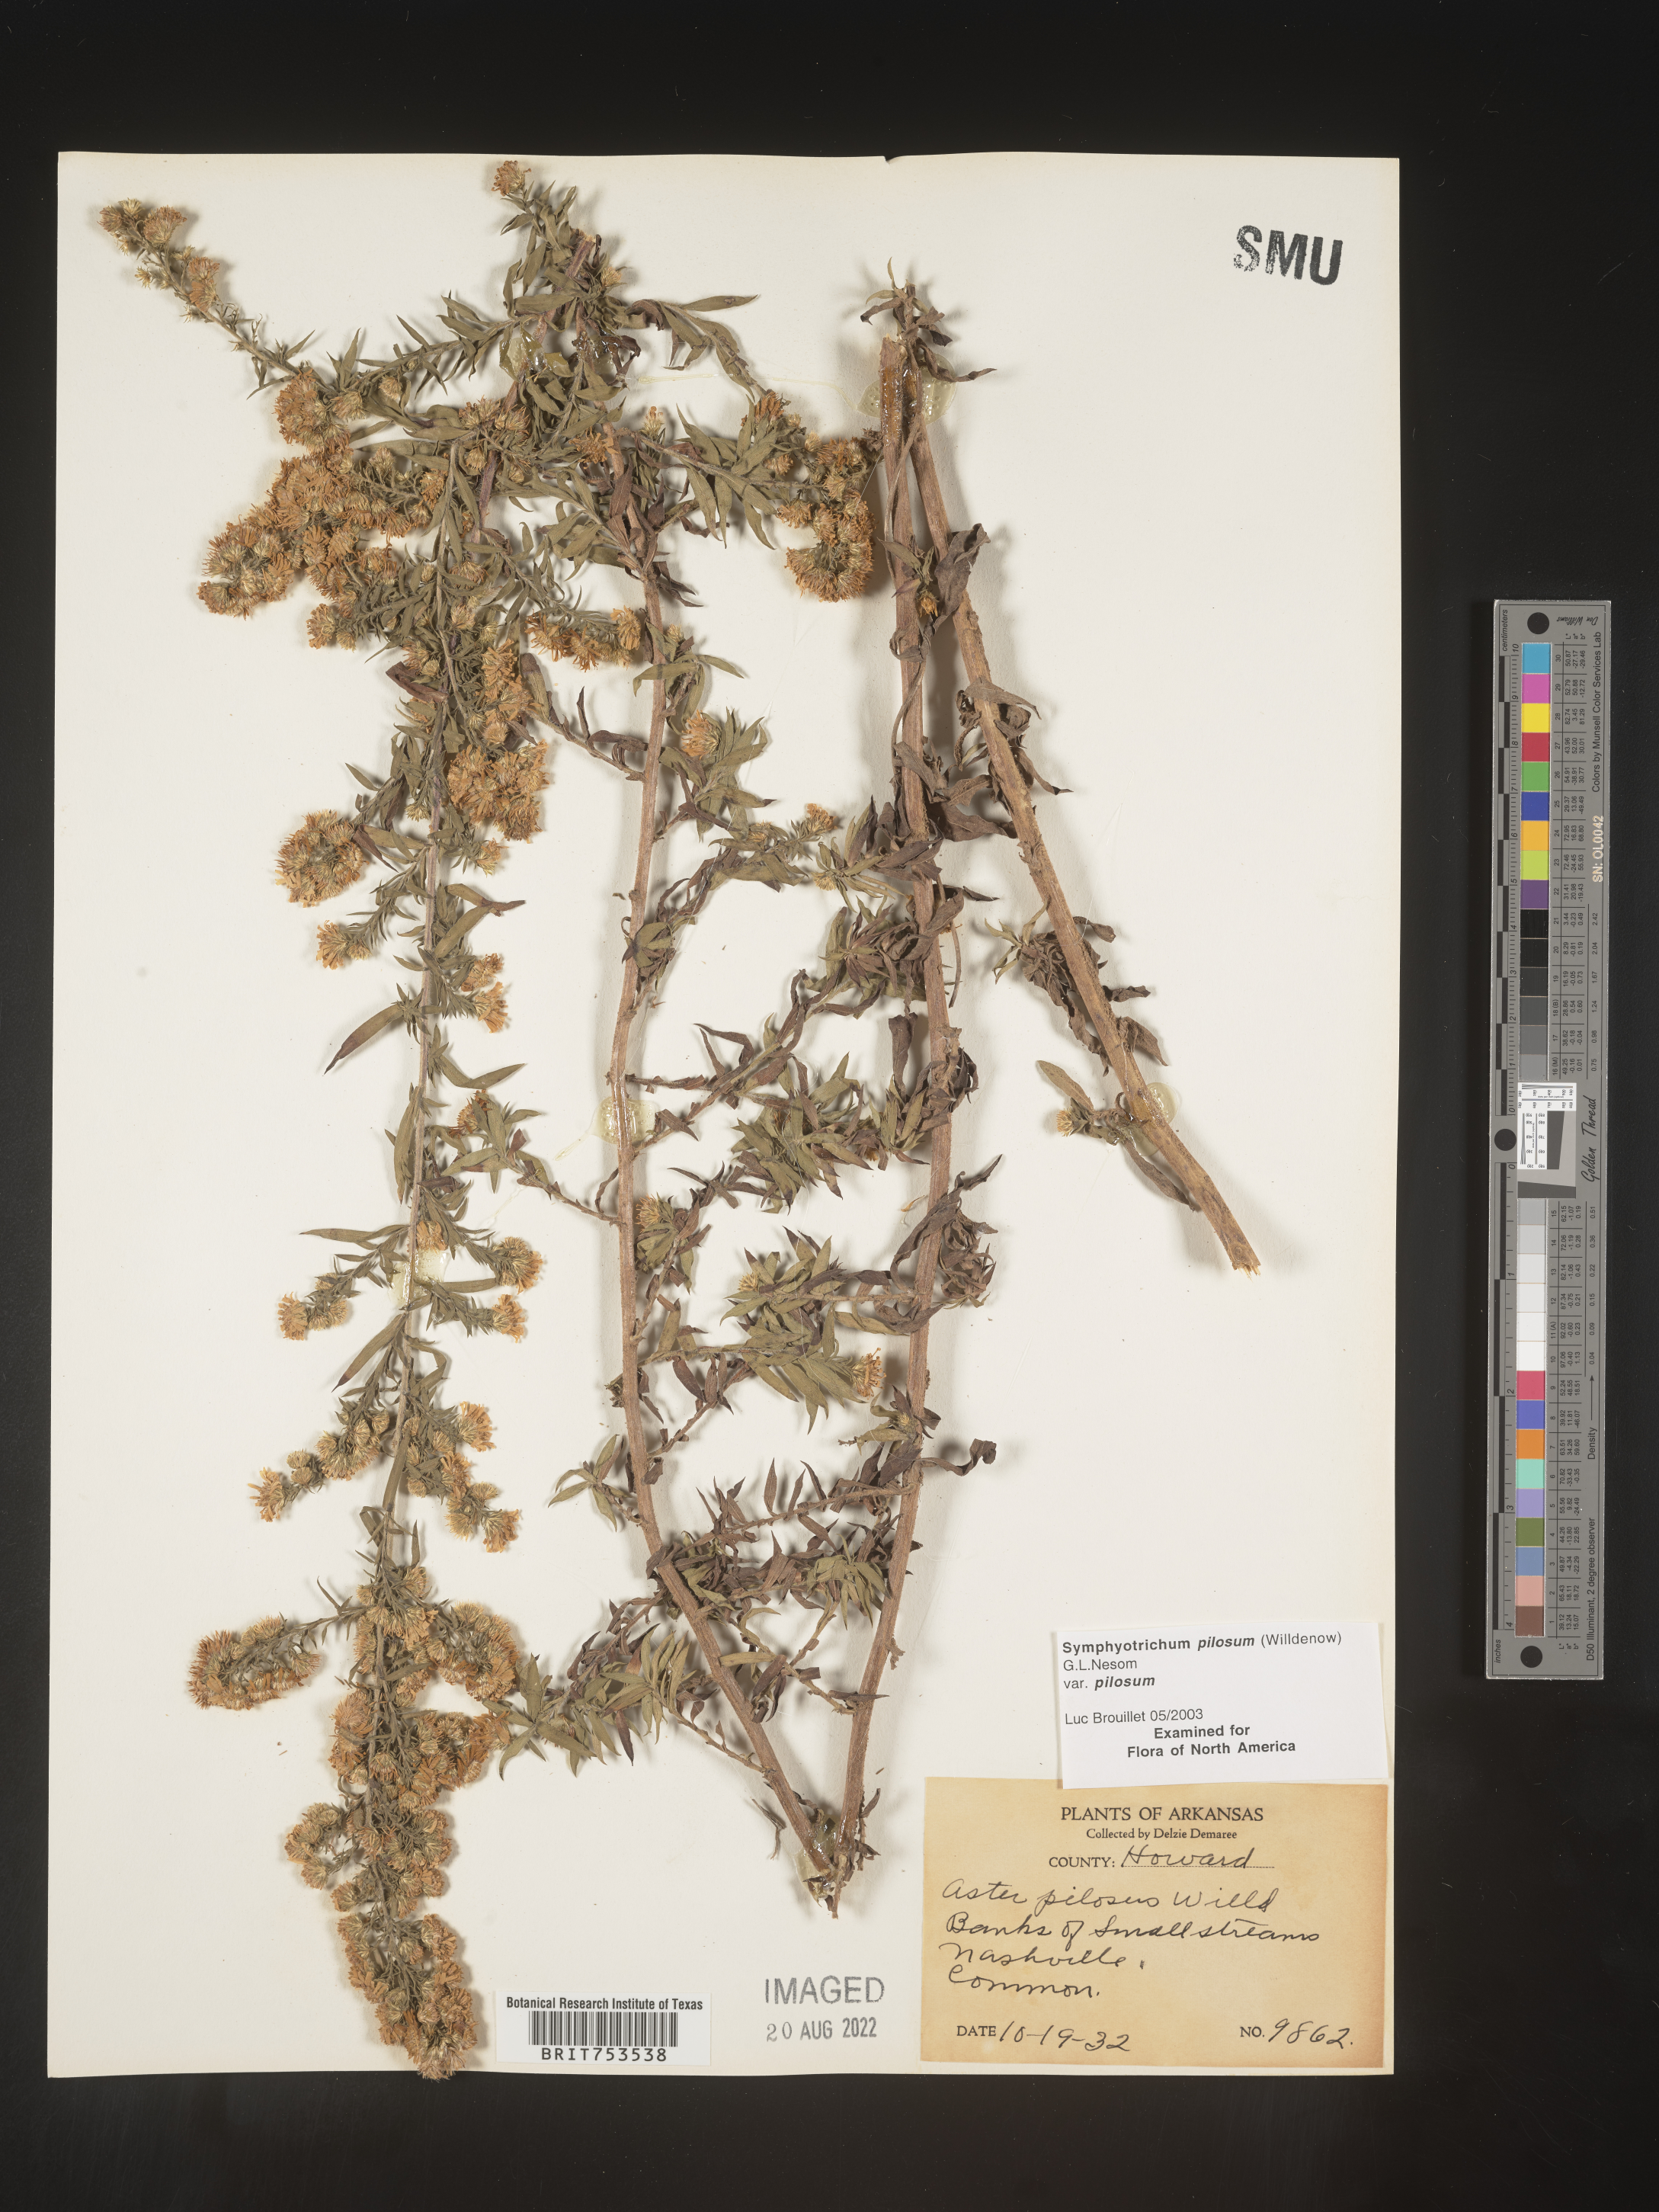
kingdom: Plantae
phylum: Tracheophyta
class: Magnoliopsida
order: Asterales
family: Asteraceae
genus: Symphyotrichum
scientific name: Symphyotrichum pilosum
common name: Awl aster
